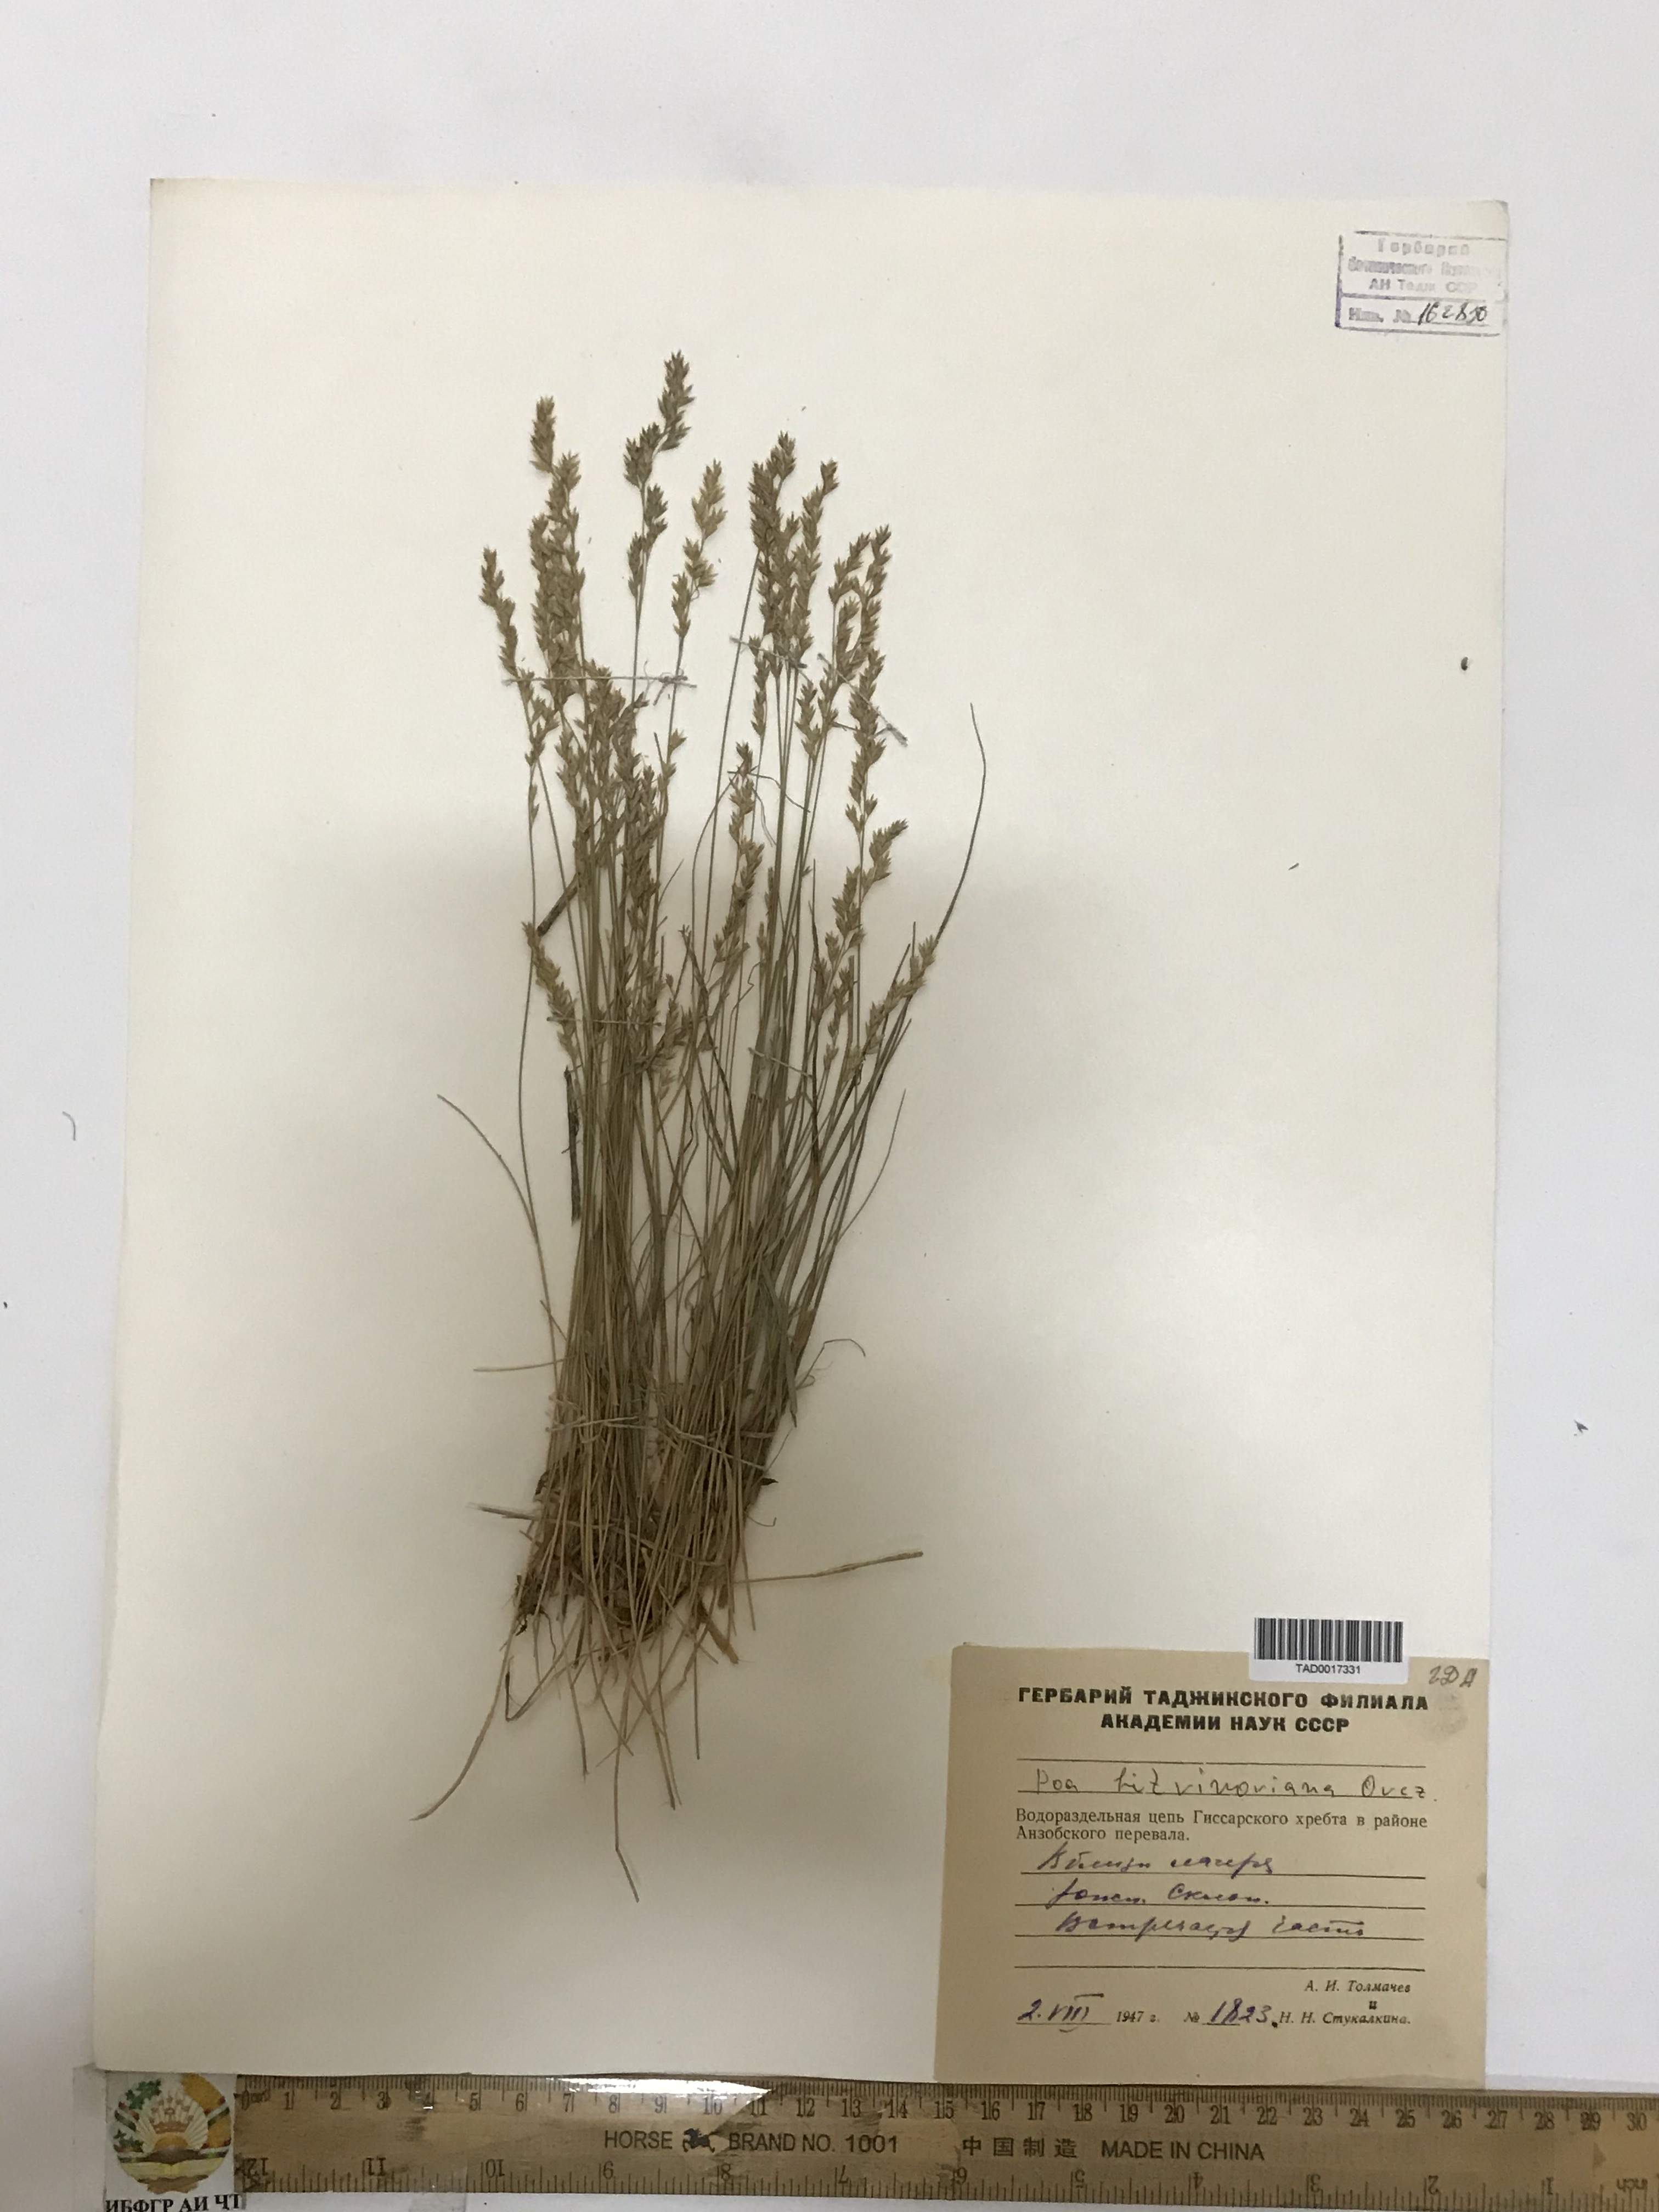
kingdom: Plantae
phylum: Tracheophyta
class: Liliopsida
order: Poales
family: Poaceae
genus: Poa
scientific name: Poa glauca
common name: Glaucous bluegrass
